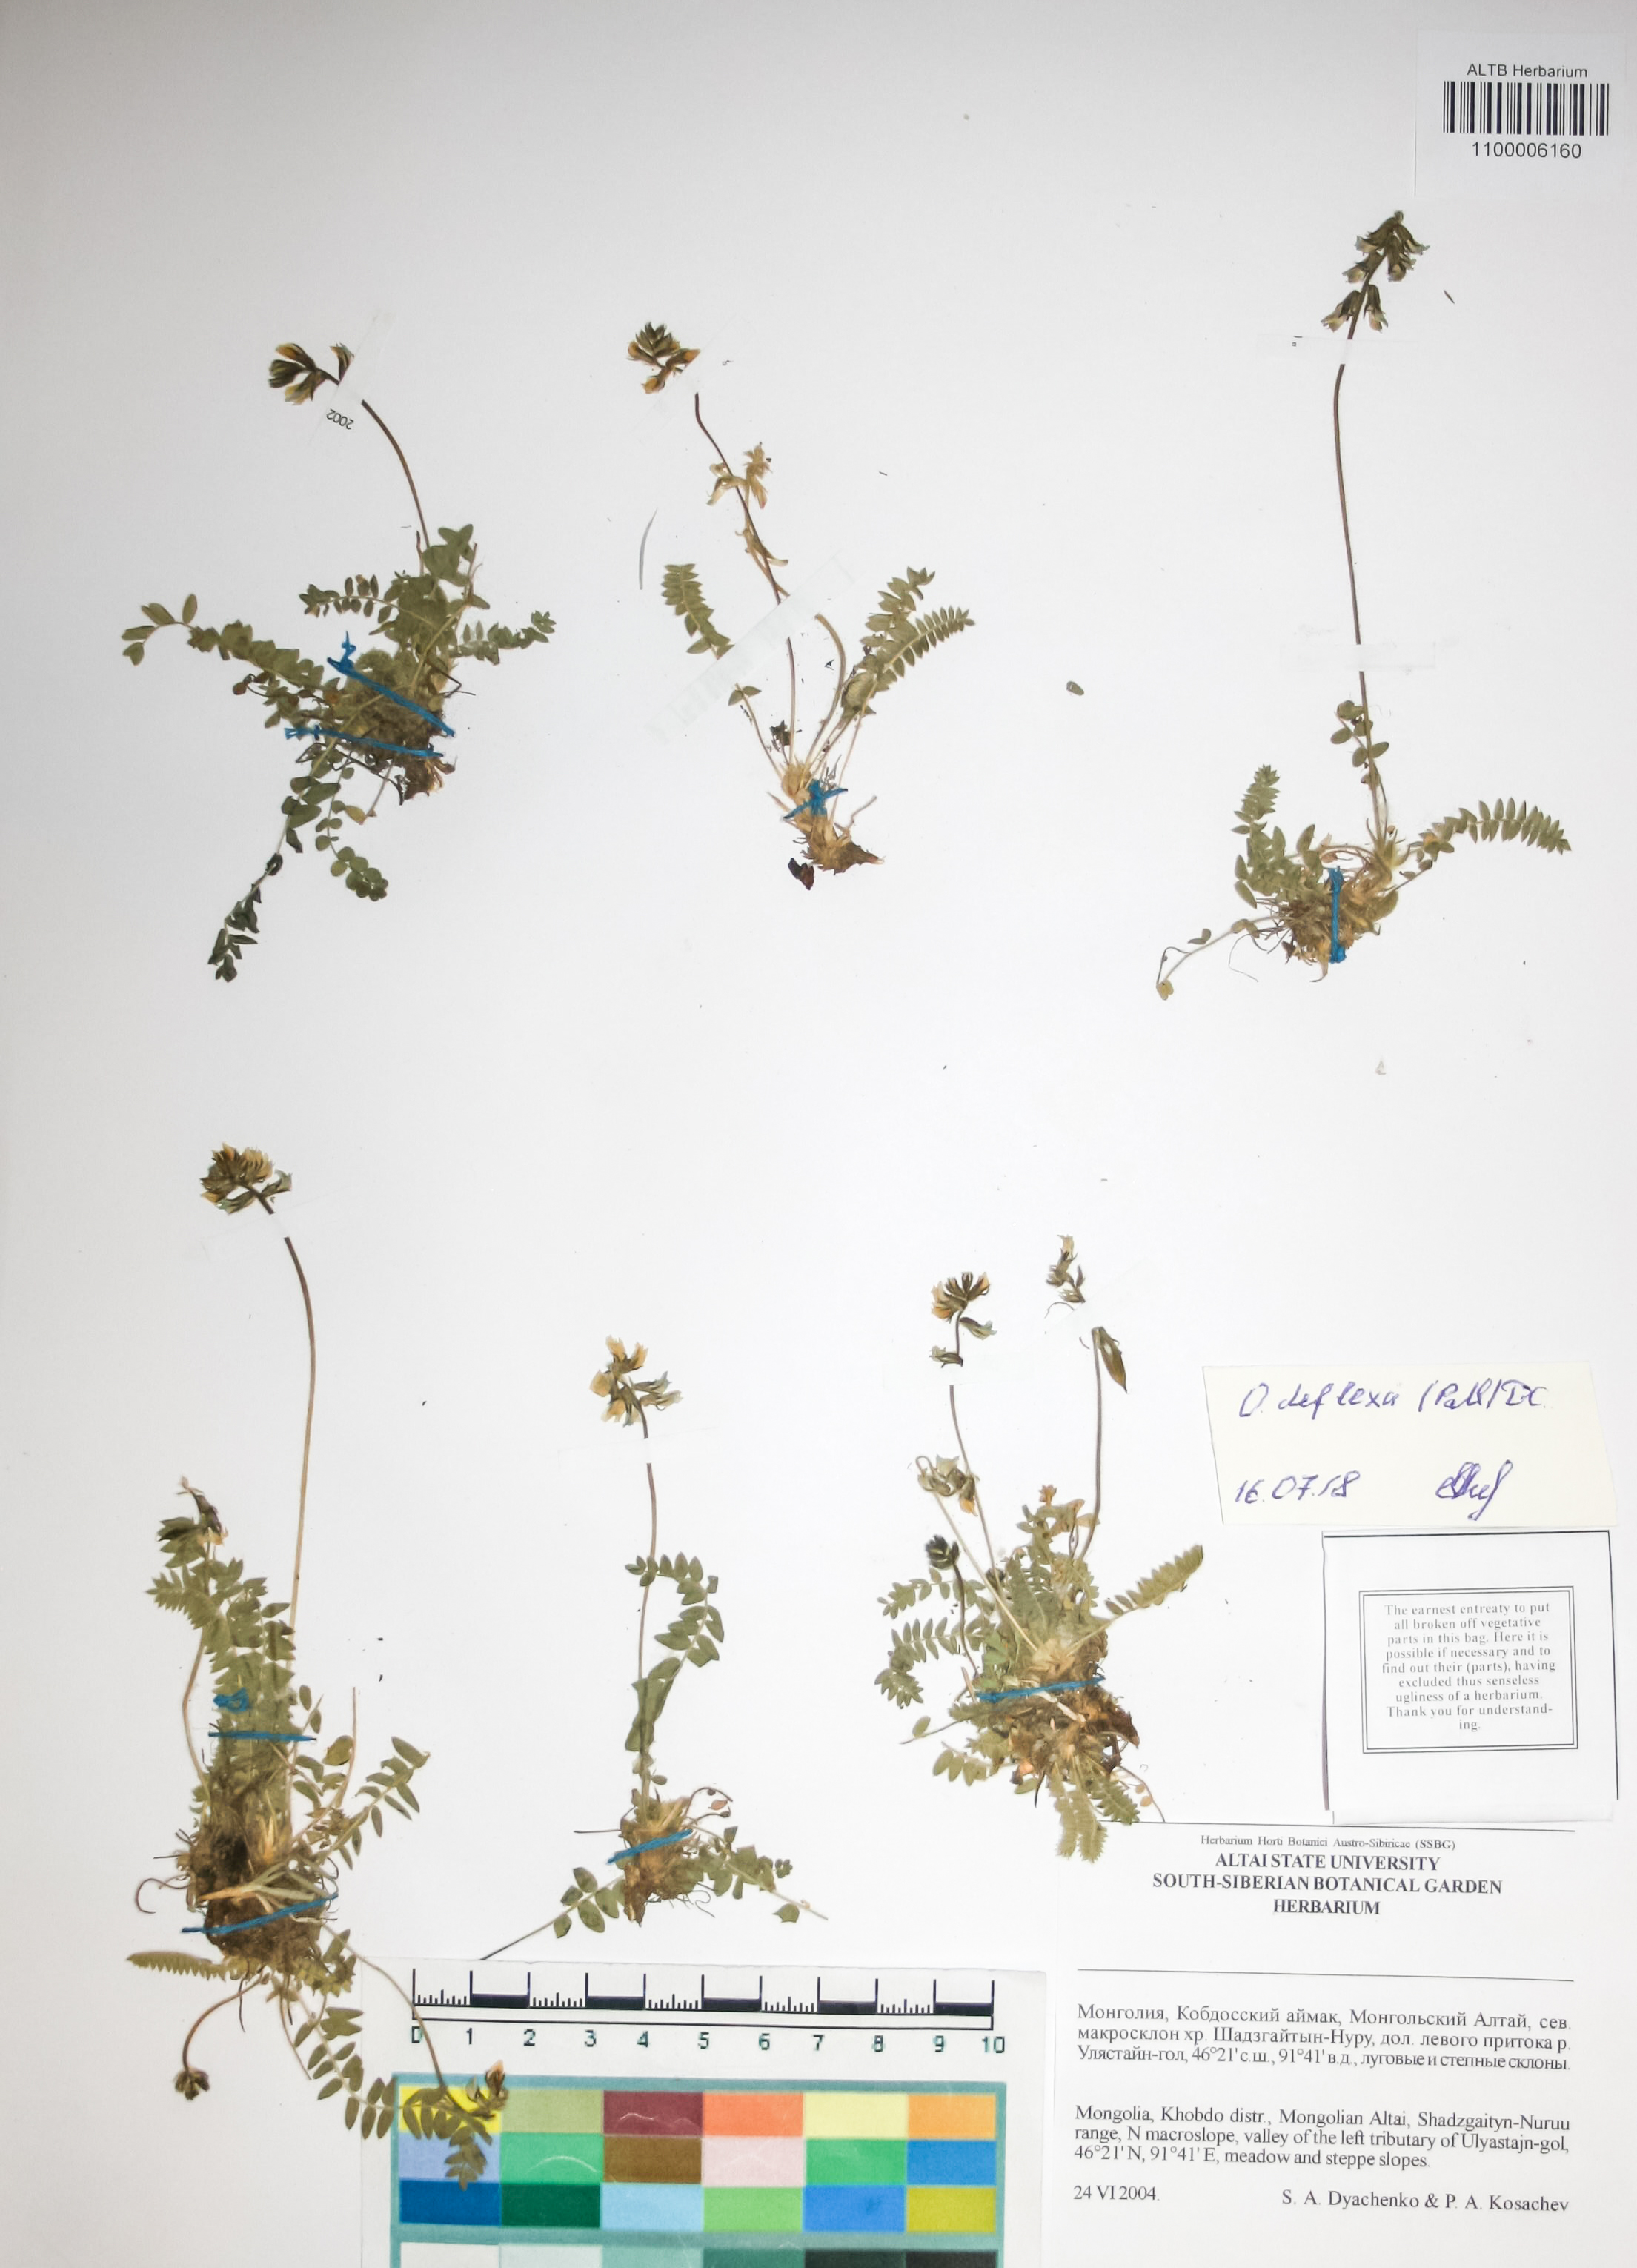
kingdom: Plantae
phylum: Tracheophyta
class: Magnoliopsida
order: Fabales
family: Fabaceae
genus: Oxytropis
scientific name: Oxytropis deflexa
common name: Stemmed oxytrope
